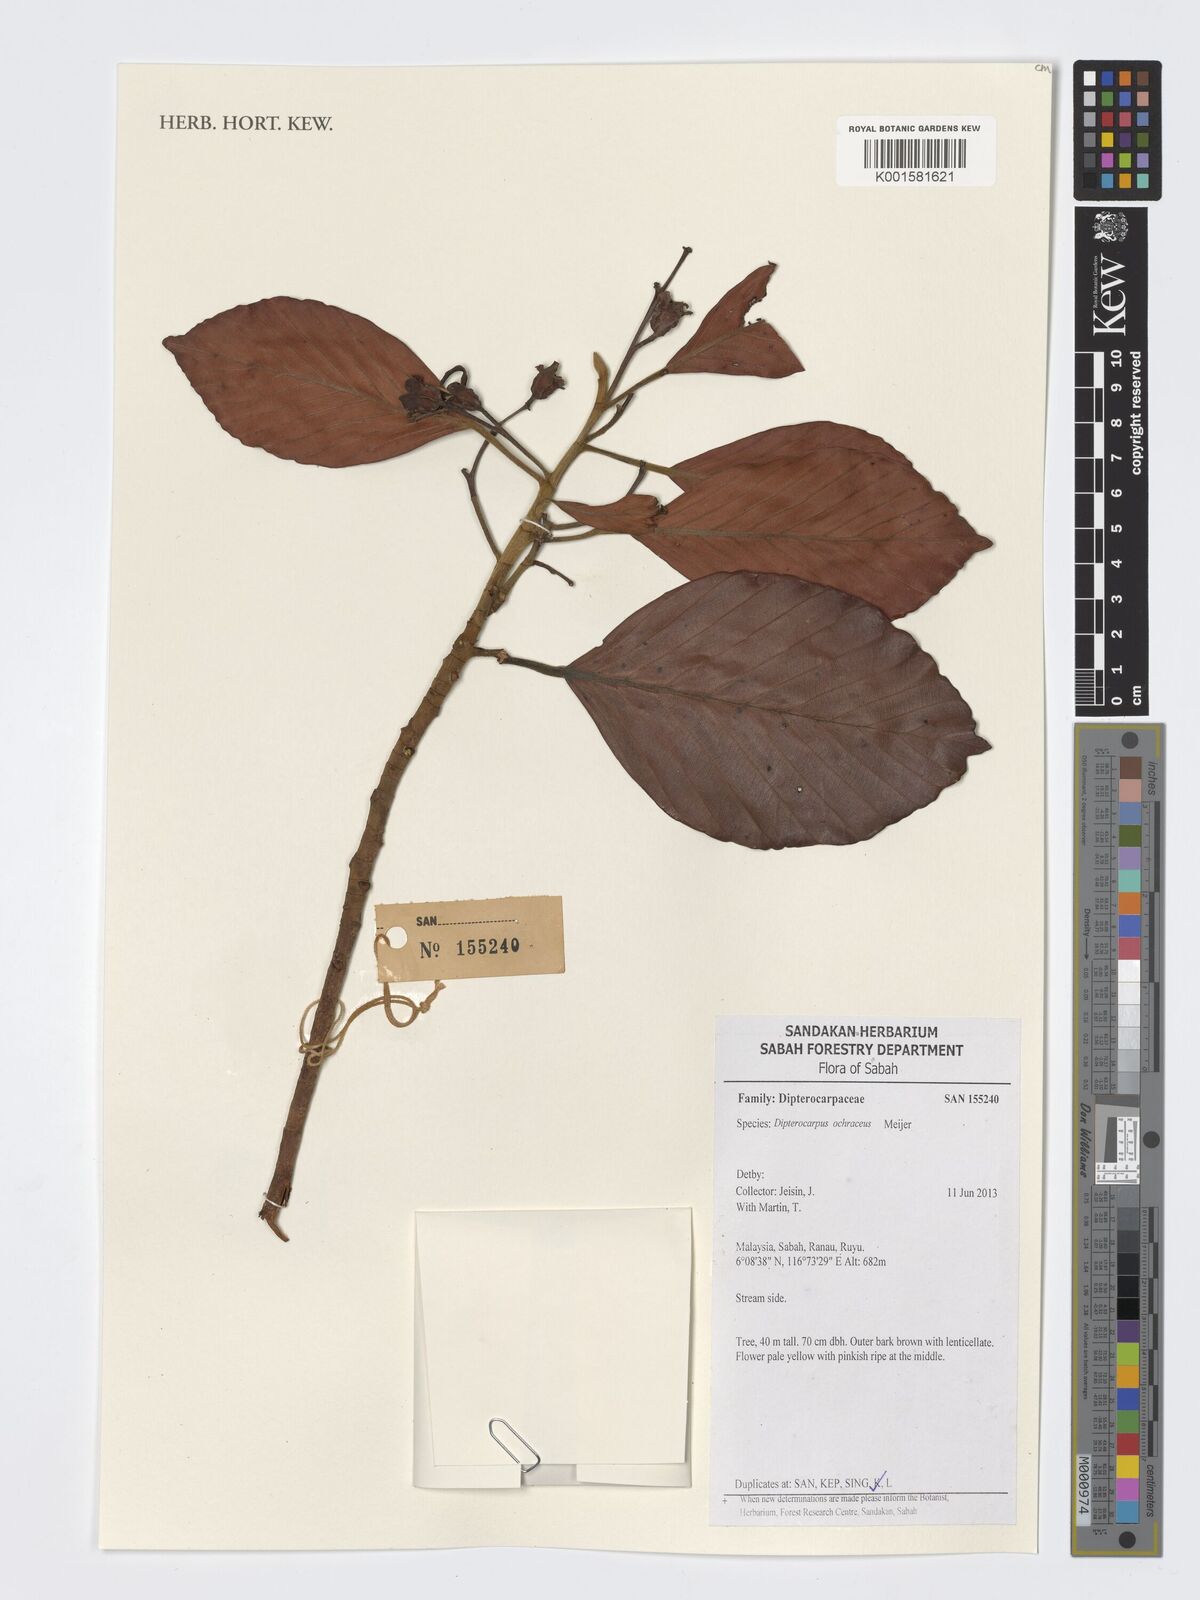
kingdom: Plantae
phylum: Tracheophyta
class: Magnoliopsida
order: Malvales
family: Dipterocarpaceae
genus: Dipterocarpus
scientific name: Dipterocarpus ochraceus
